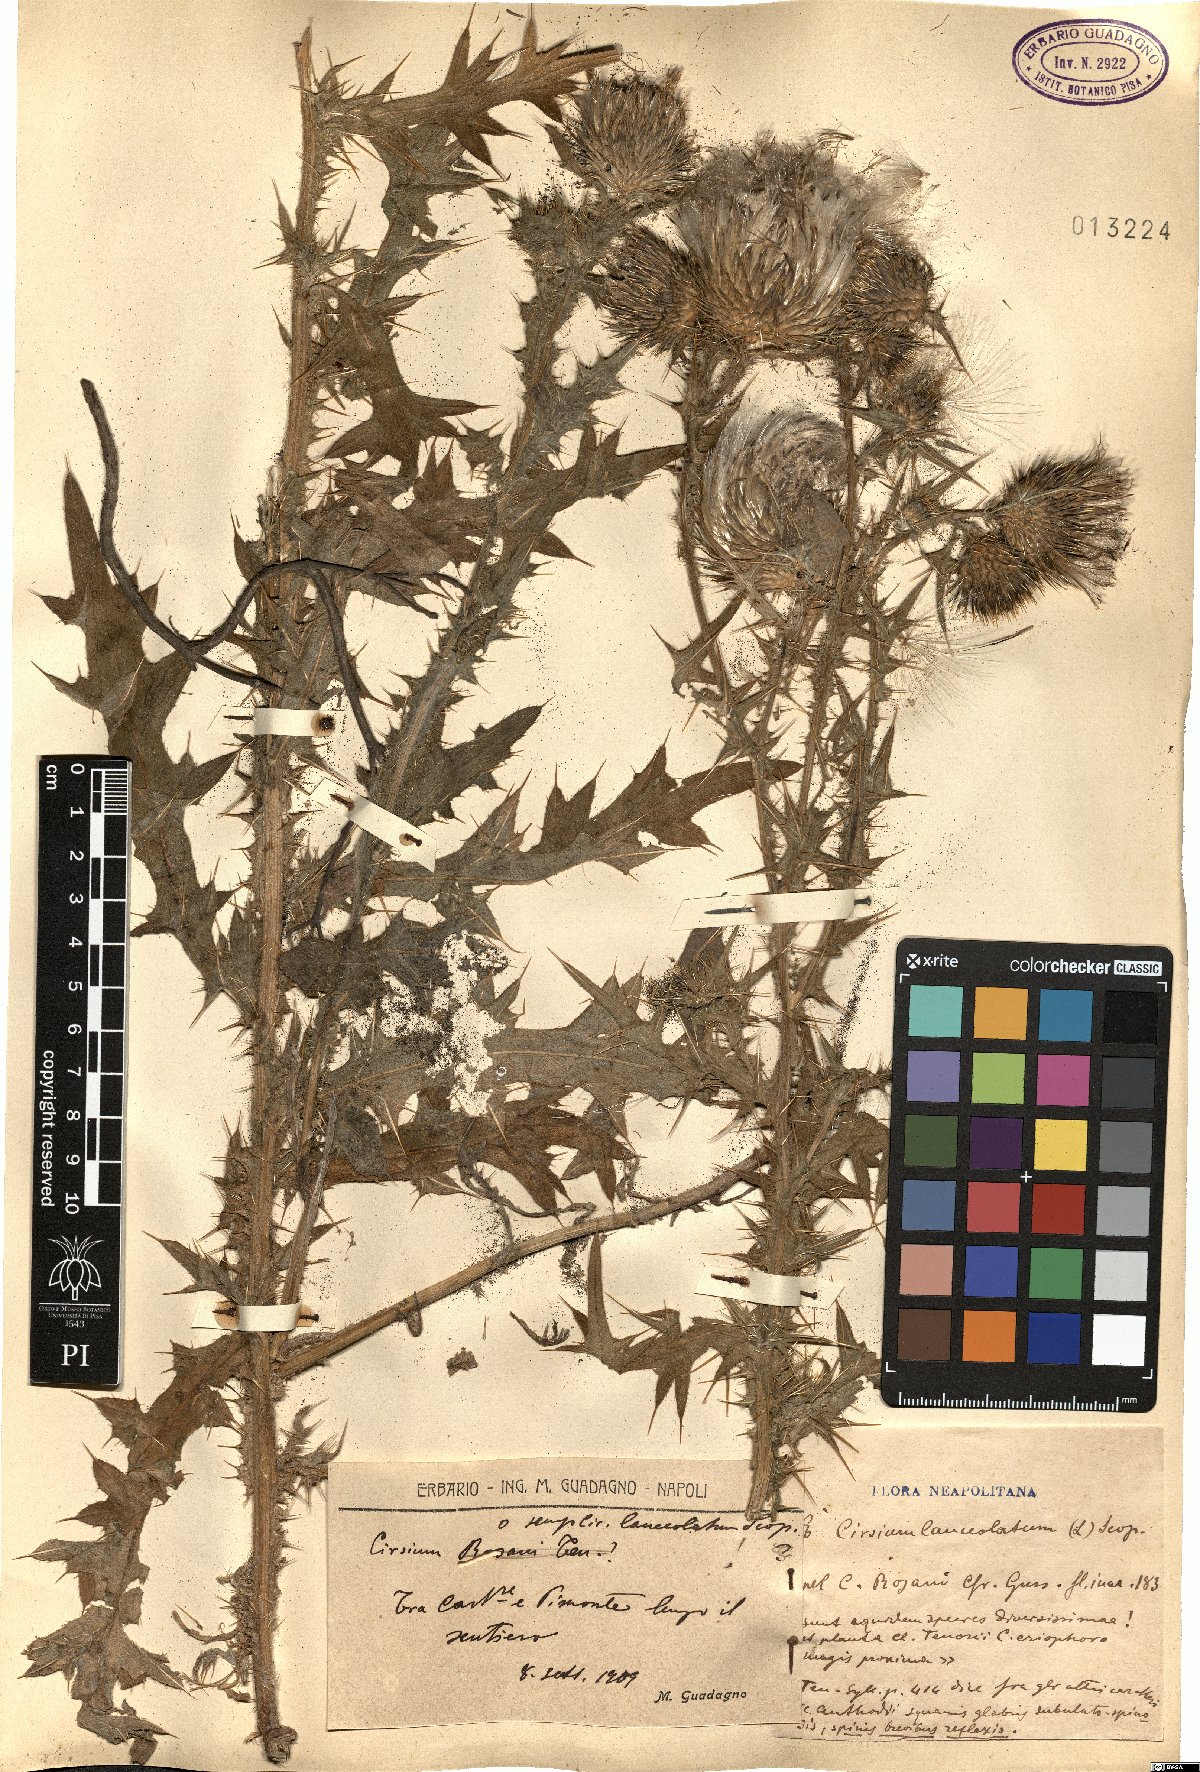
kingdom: Plantae
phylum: Tracheophyta
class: Magnoliopsida
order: Asterales
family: Asteraceae
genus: Cirsium
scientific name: Cirsium vulgare
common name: Bull thistle
